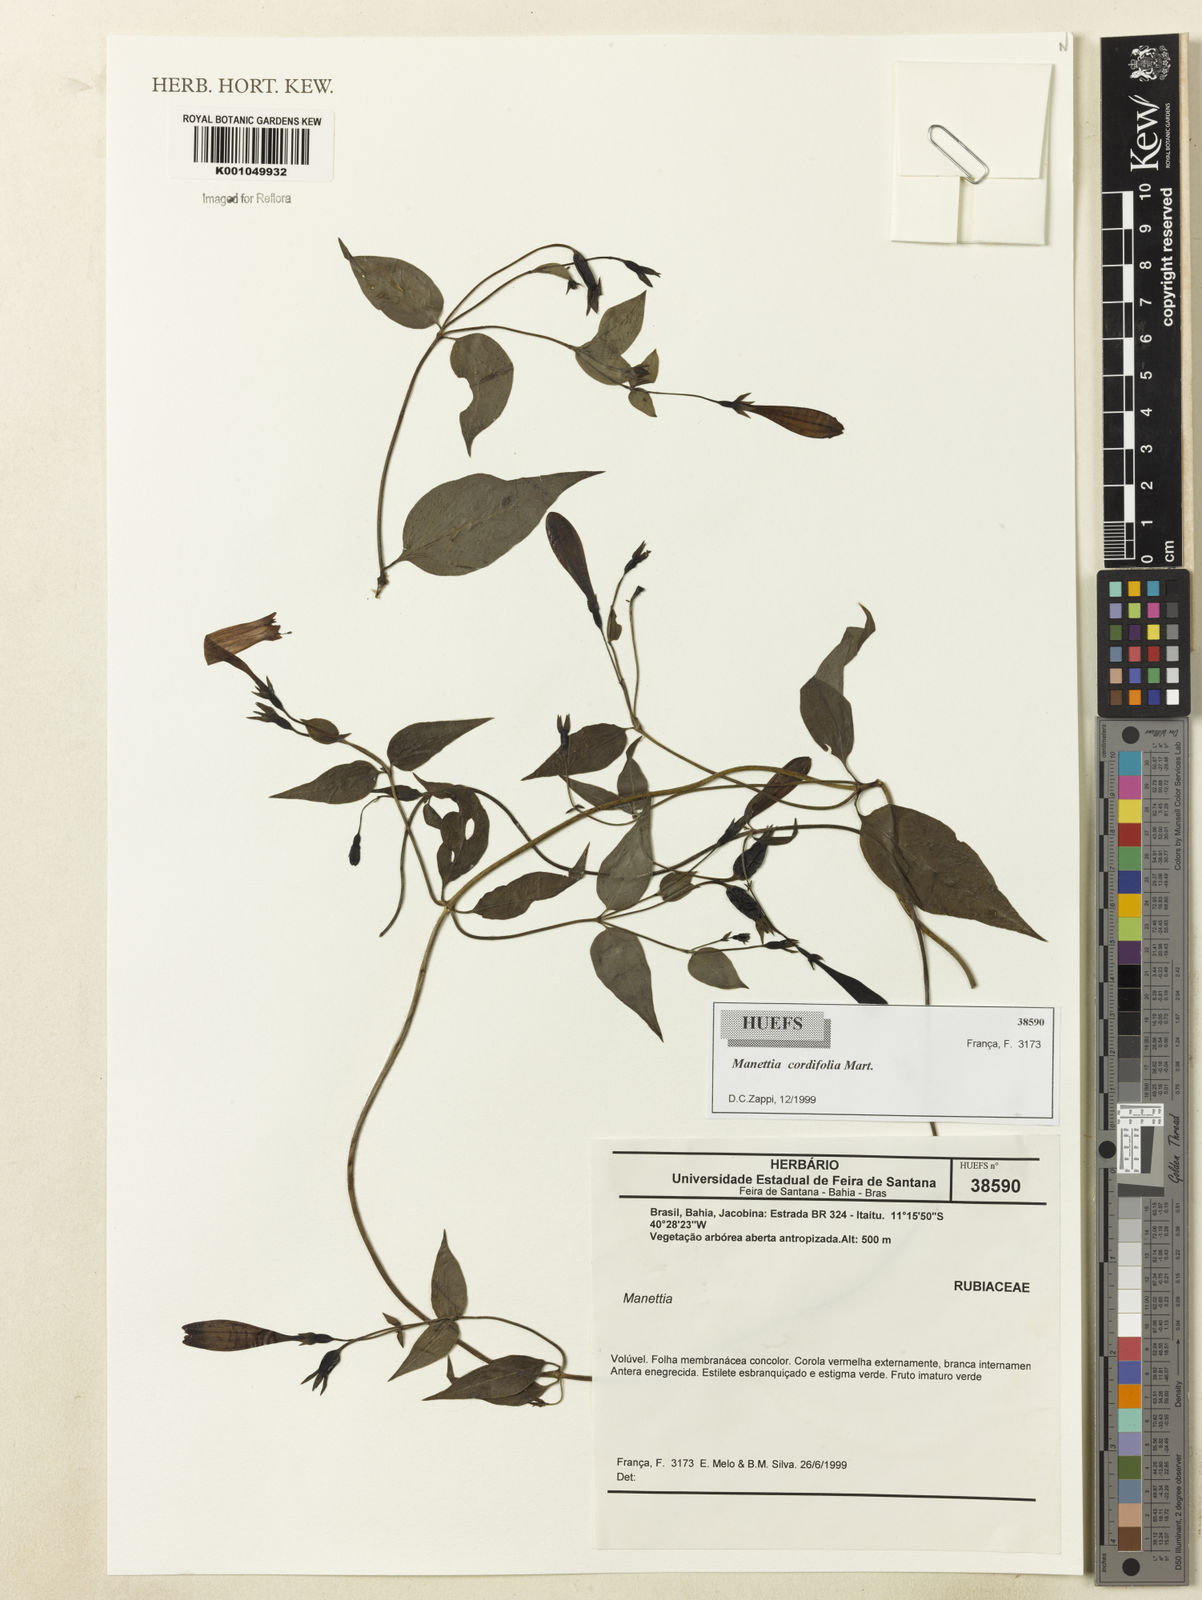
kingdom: Plantae
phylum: Tracheophyta
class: Magnoliopsida
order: Gentianales
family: Rubiaceae
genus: Manettia
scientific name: Manettia cordifolia
